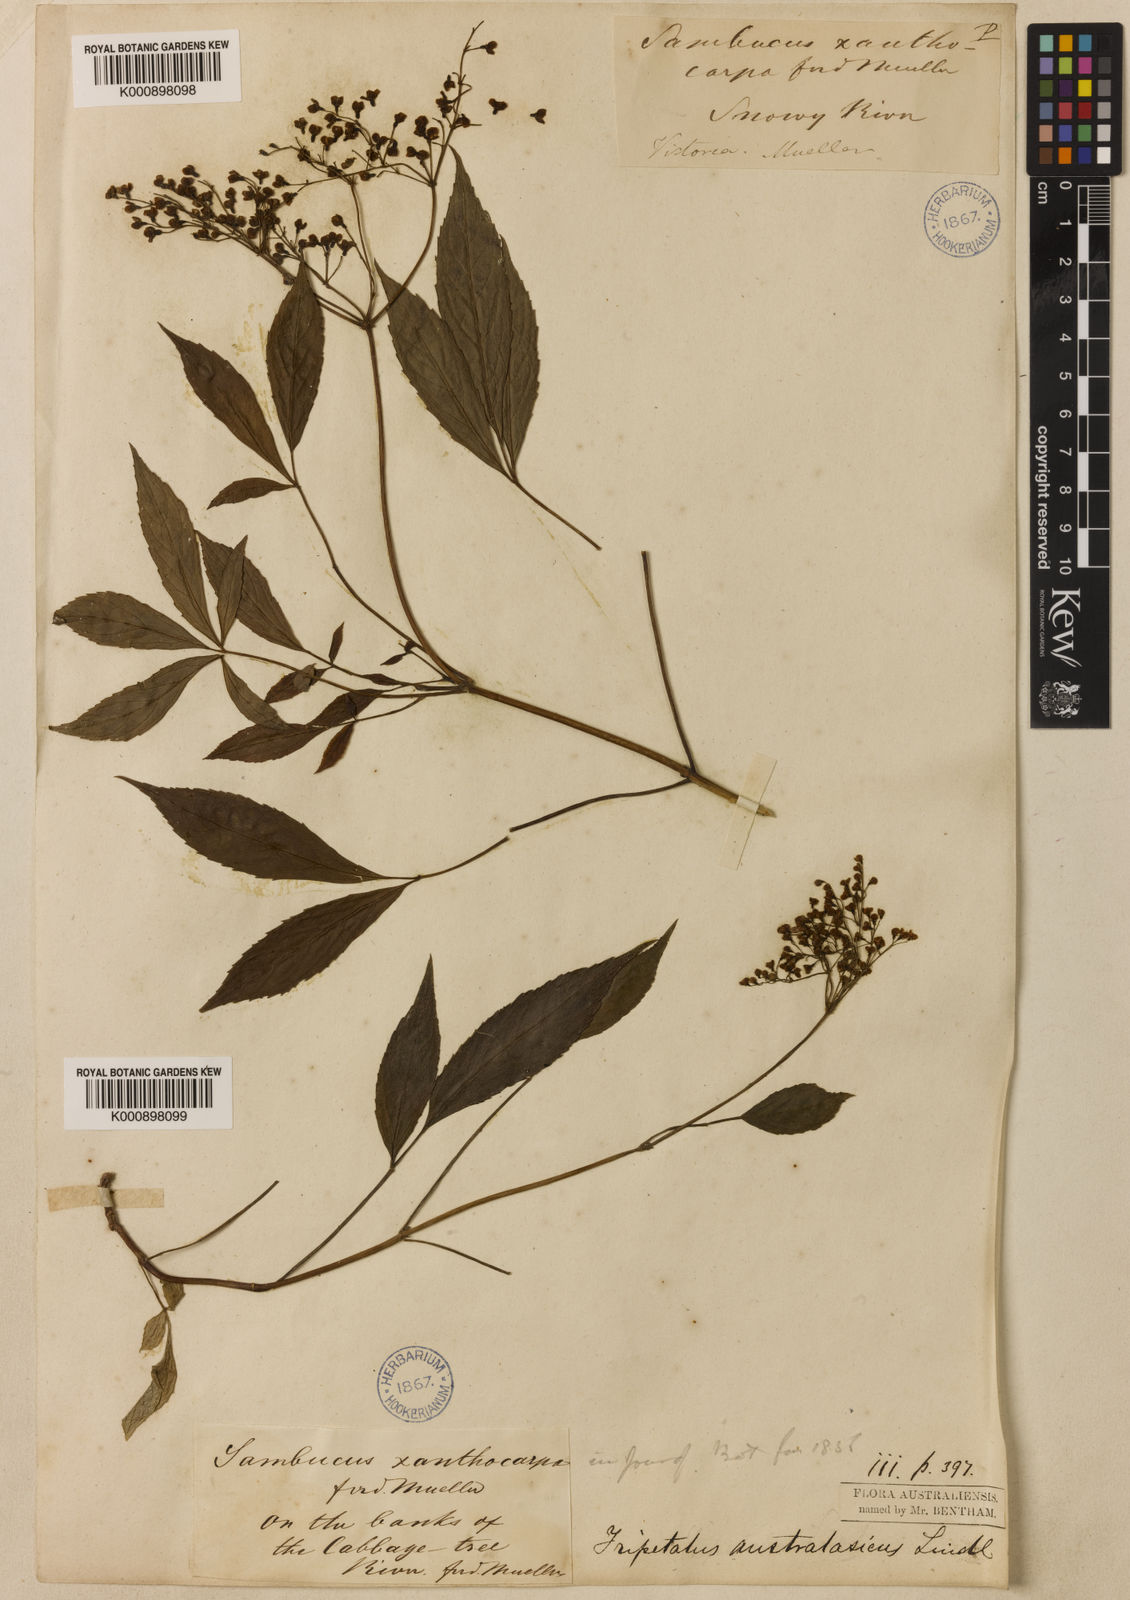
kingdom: Plantae
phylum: Tracheophyta
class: Magnoliopsida
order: Dipsacales
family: Viburnaceae
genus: Sambucus
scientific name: Sambucus australasica
